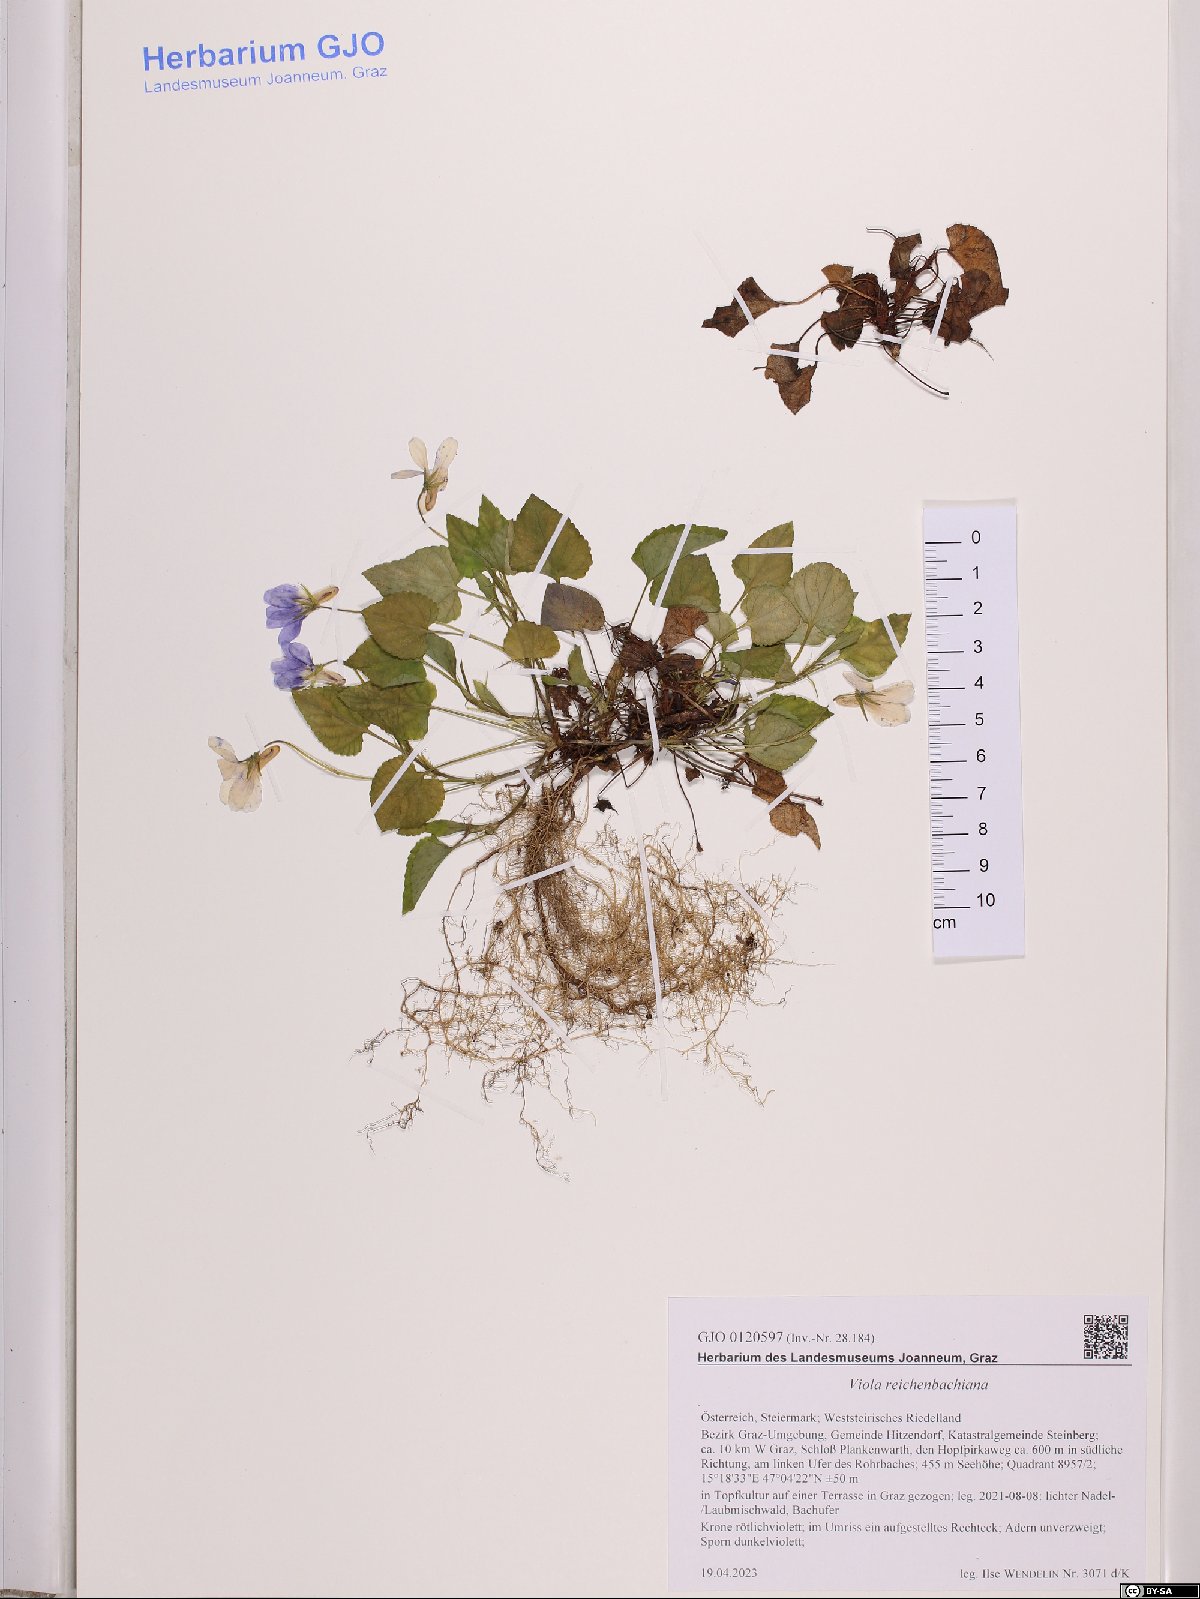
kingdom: Plantae
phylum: Tracheophyta
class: Magnoliopsida
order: Malpighiales
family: Violaceae
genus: Viola
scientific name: Viola reichenbachiana
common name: Early dog-violet
